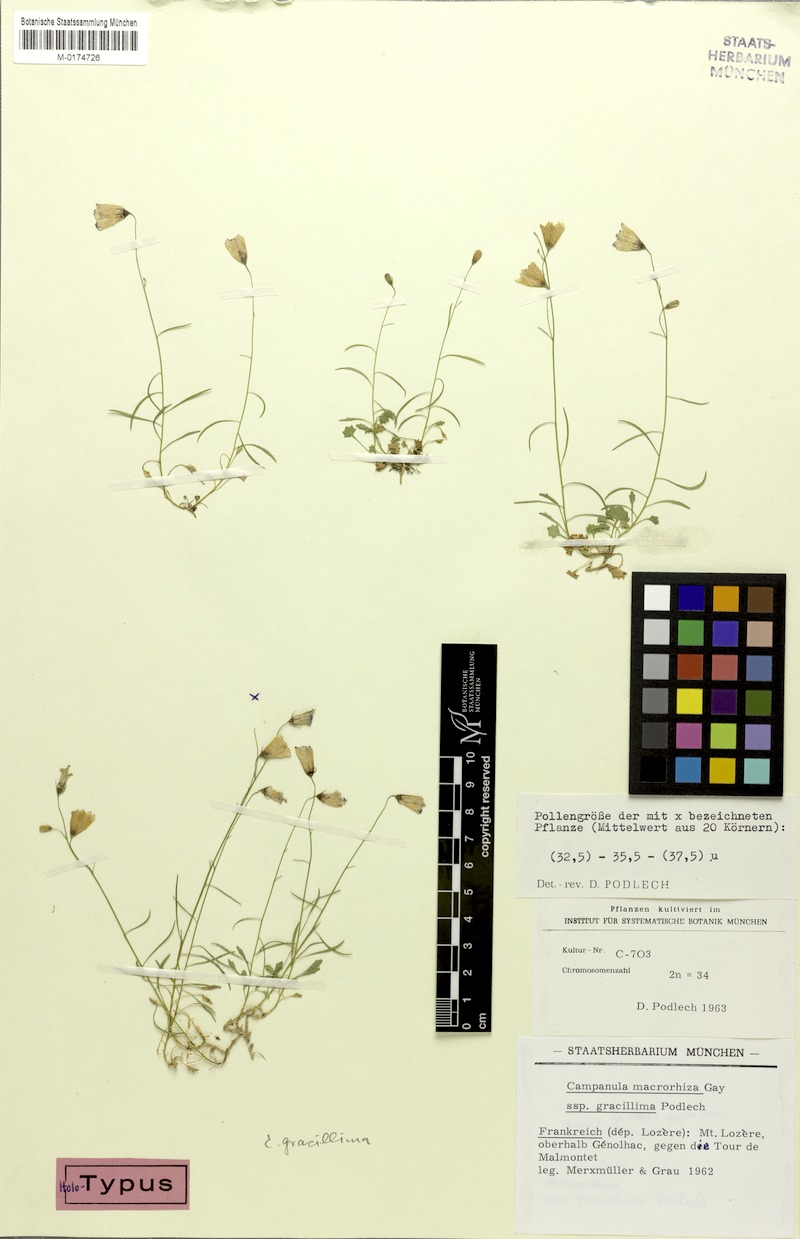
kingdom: Plantae
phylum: Tracheophyta
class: Magnoliopsida
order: Asterales
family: Campanulaceae
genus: Campanula
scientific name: Campanula gracillima
